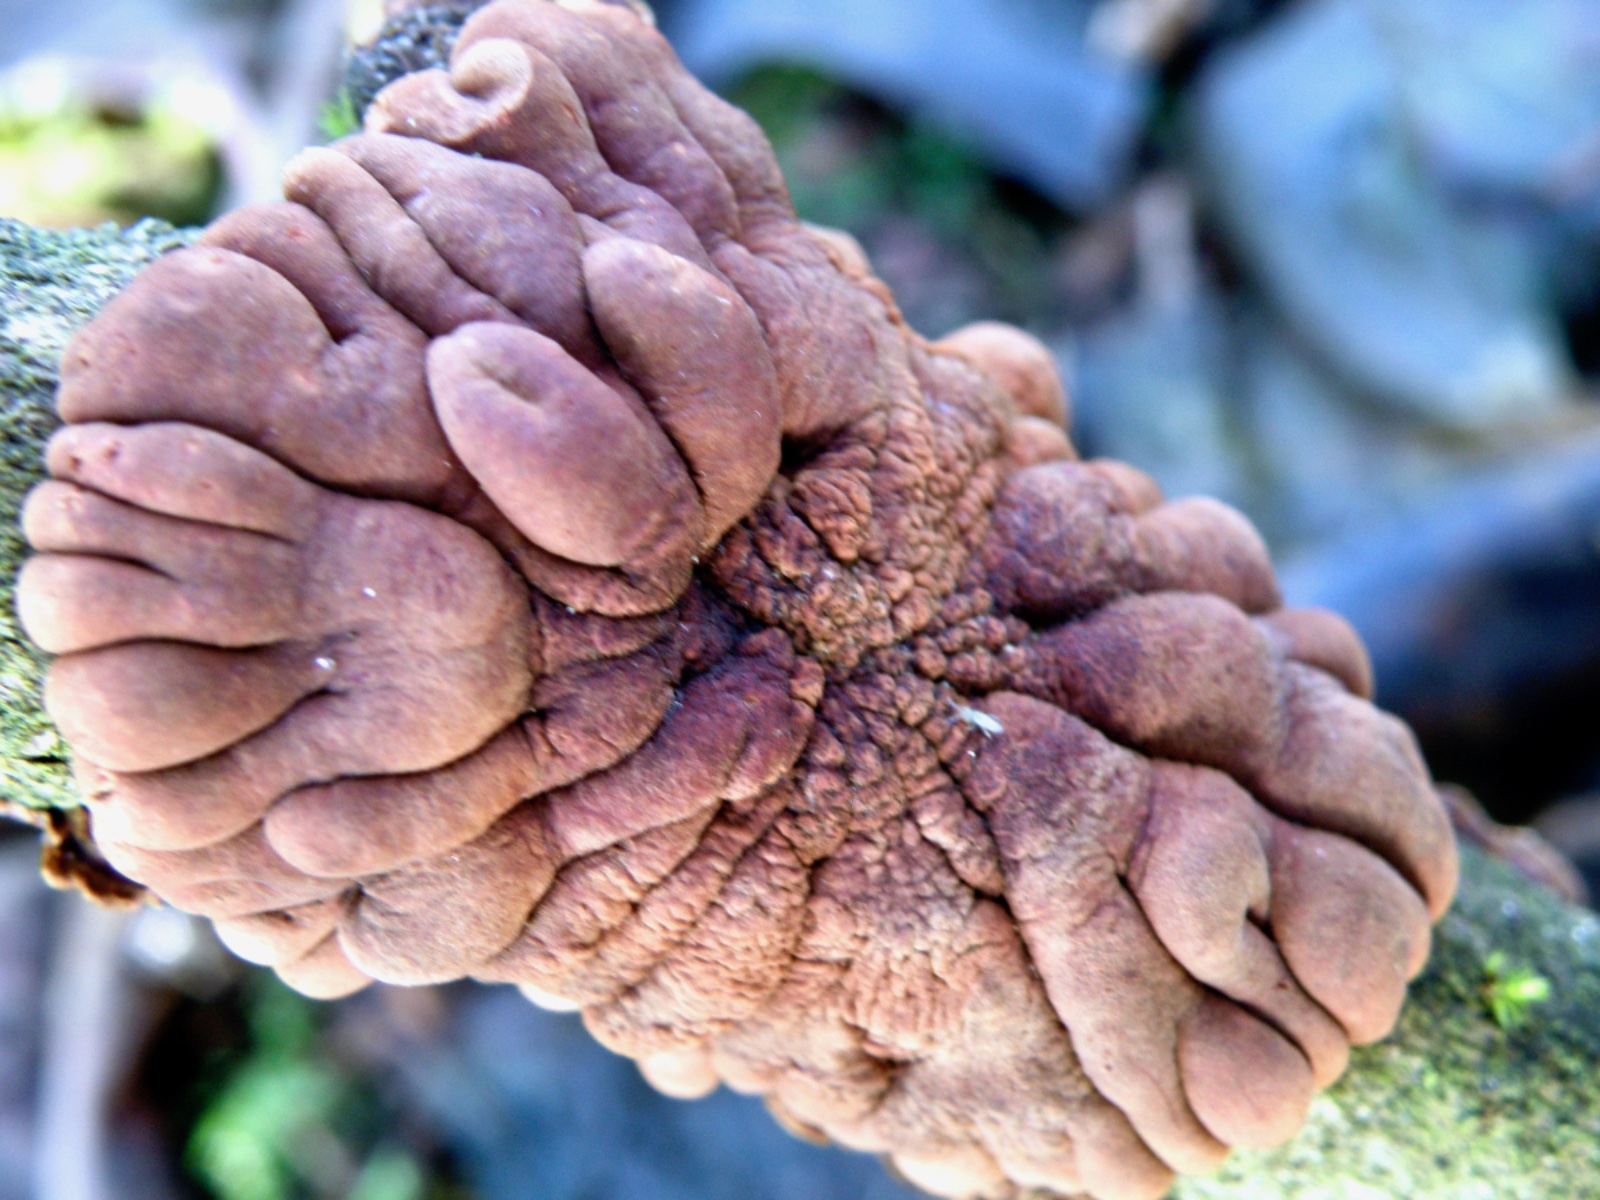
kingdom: Fungi
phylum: Ascomycota
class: Sordariomycetes
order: Hypocreales
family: Hypocreaceae
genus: Hypocreopsis
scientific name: Hypocreopsis lichenoides
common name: pilfinger
